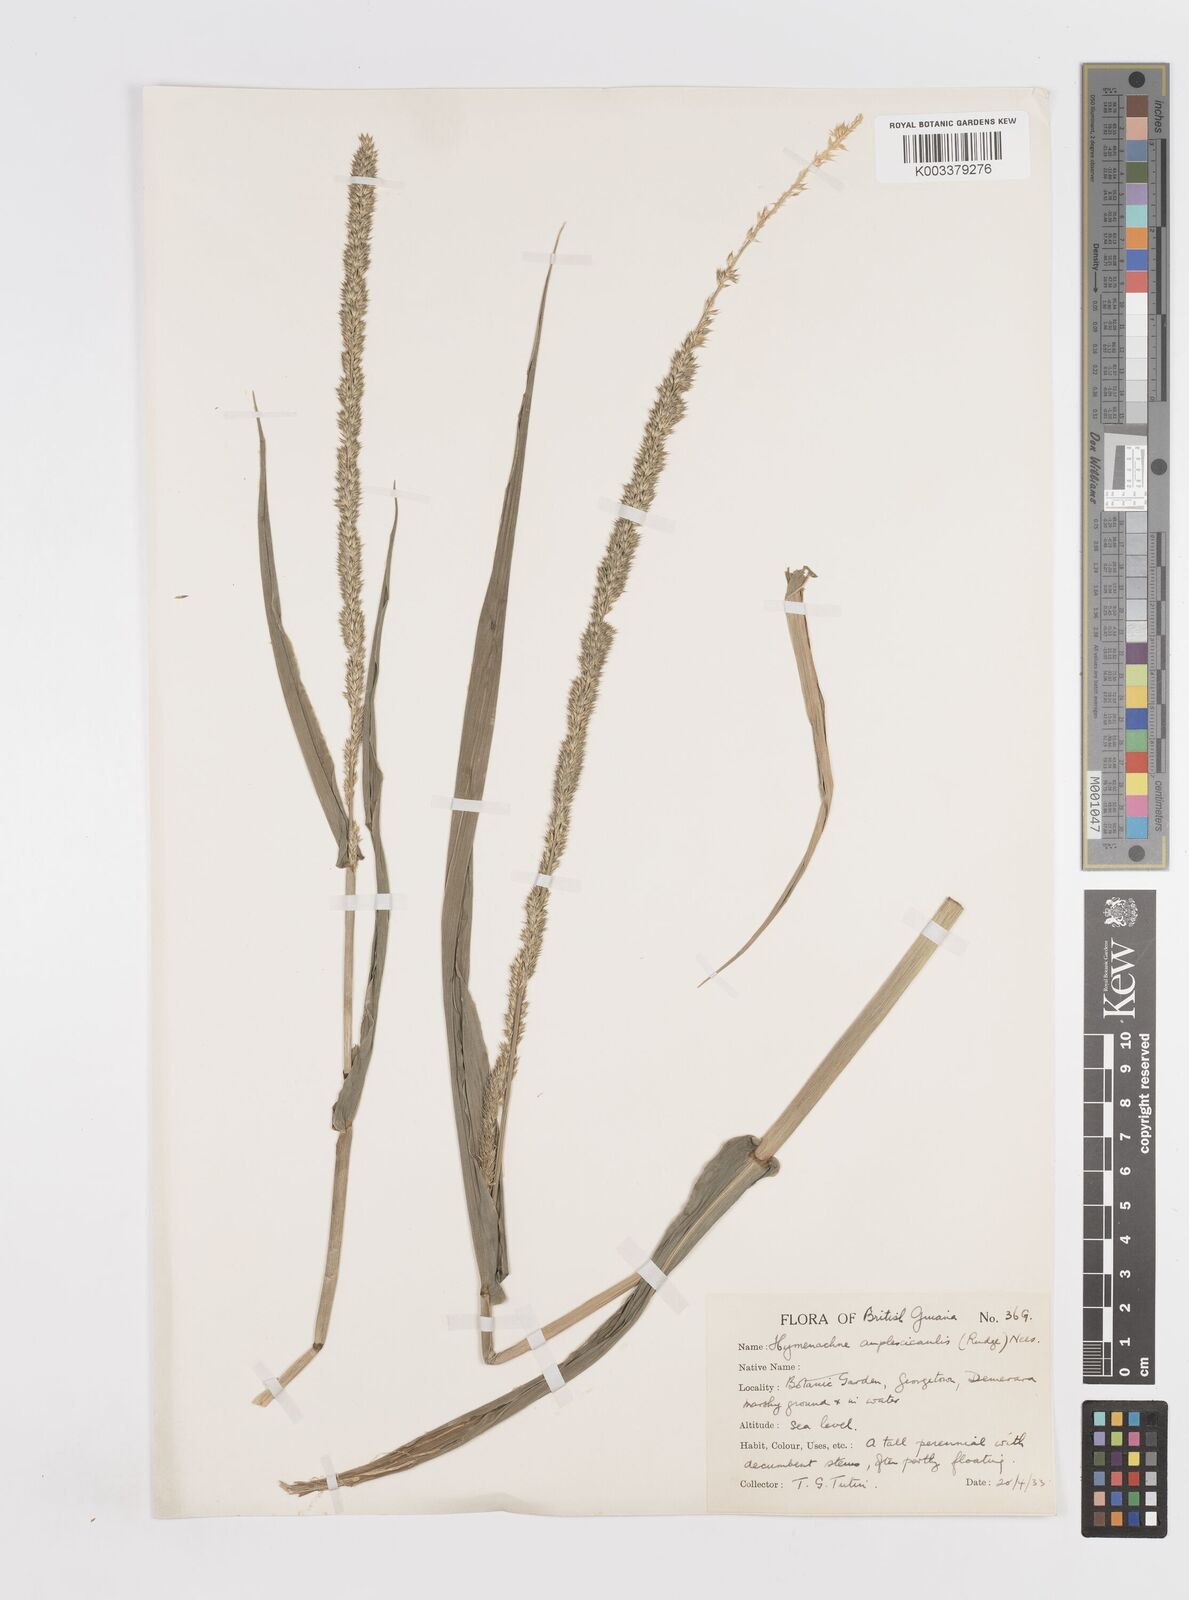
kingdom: Plantae
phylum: Tracheophyta
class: Liliopsida
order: Poales
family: Poaceae
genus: Hymenachne
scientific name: Hymenachne amplexicaulis
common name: Olive hymenachne
